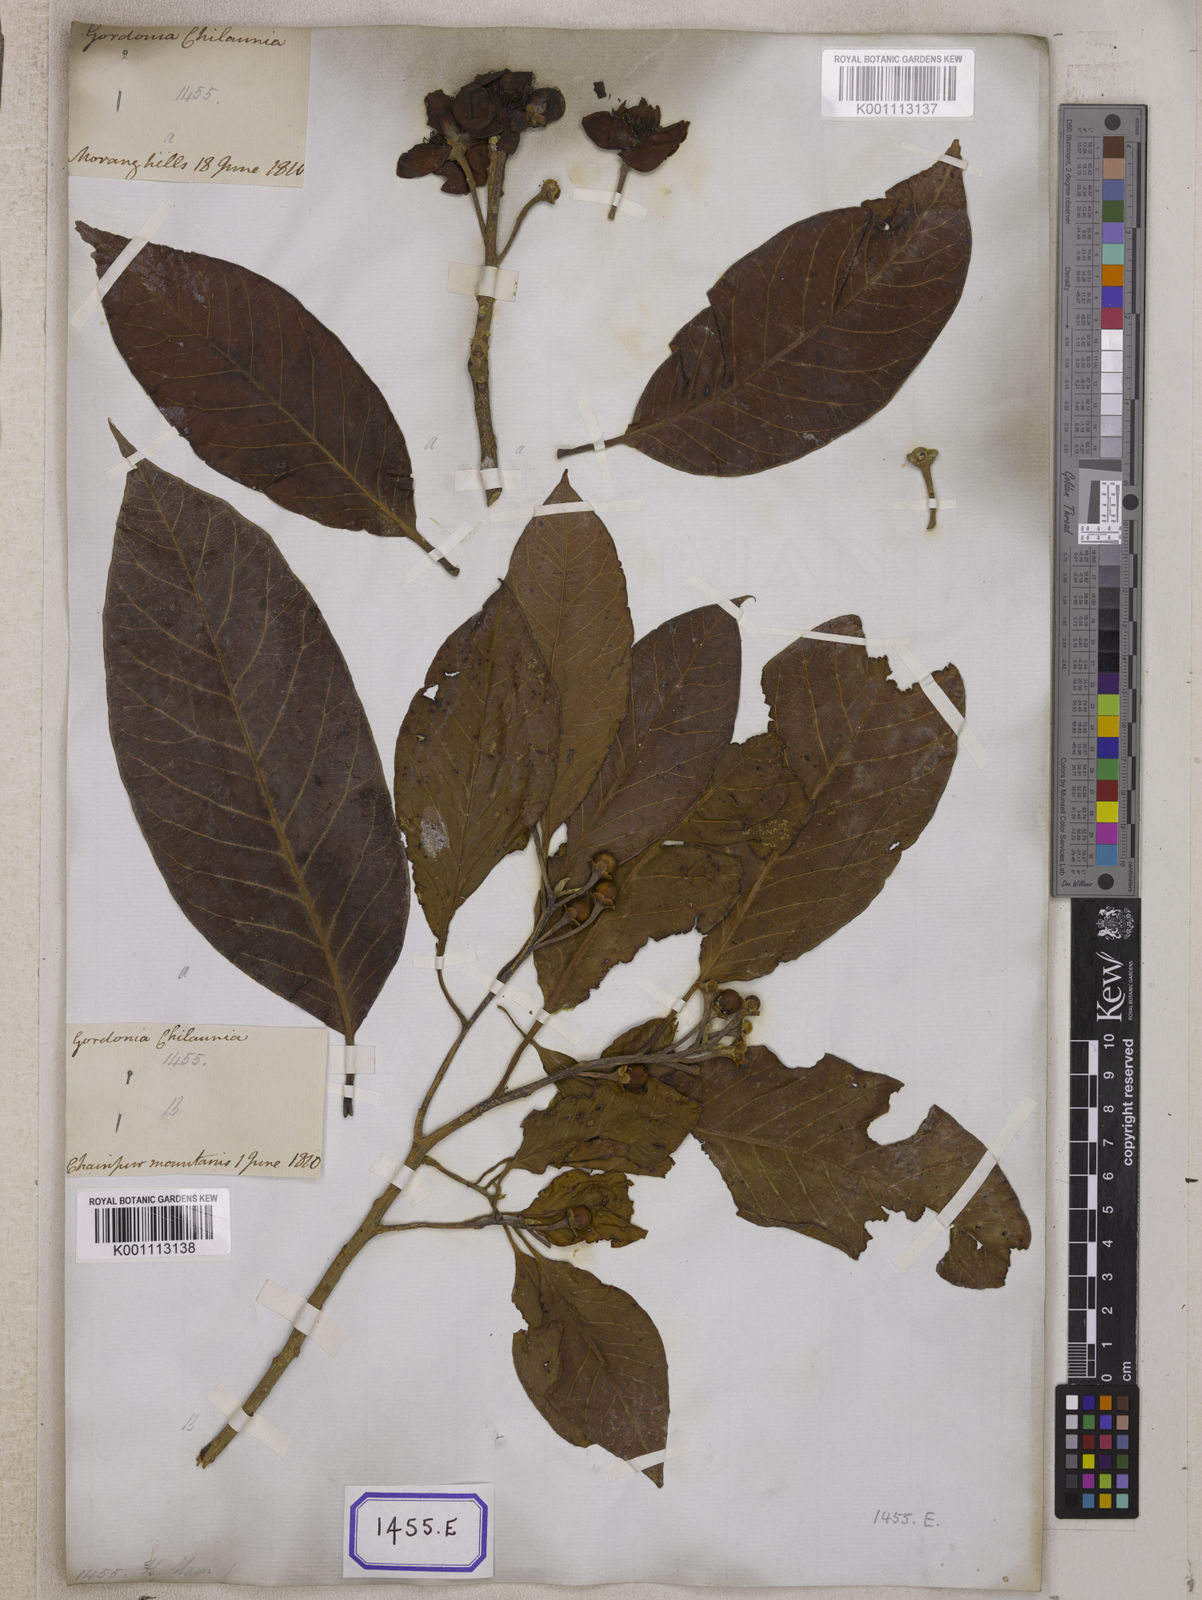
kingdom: Plantae
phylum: Tracheophyta
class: Magnoliopsida
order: Ericales
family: Theaceae
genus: Schima
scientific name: Schima wallichii
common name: Schima
